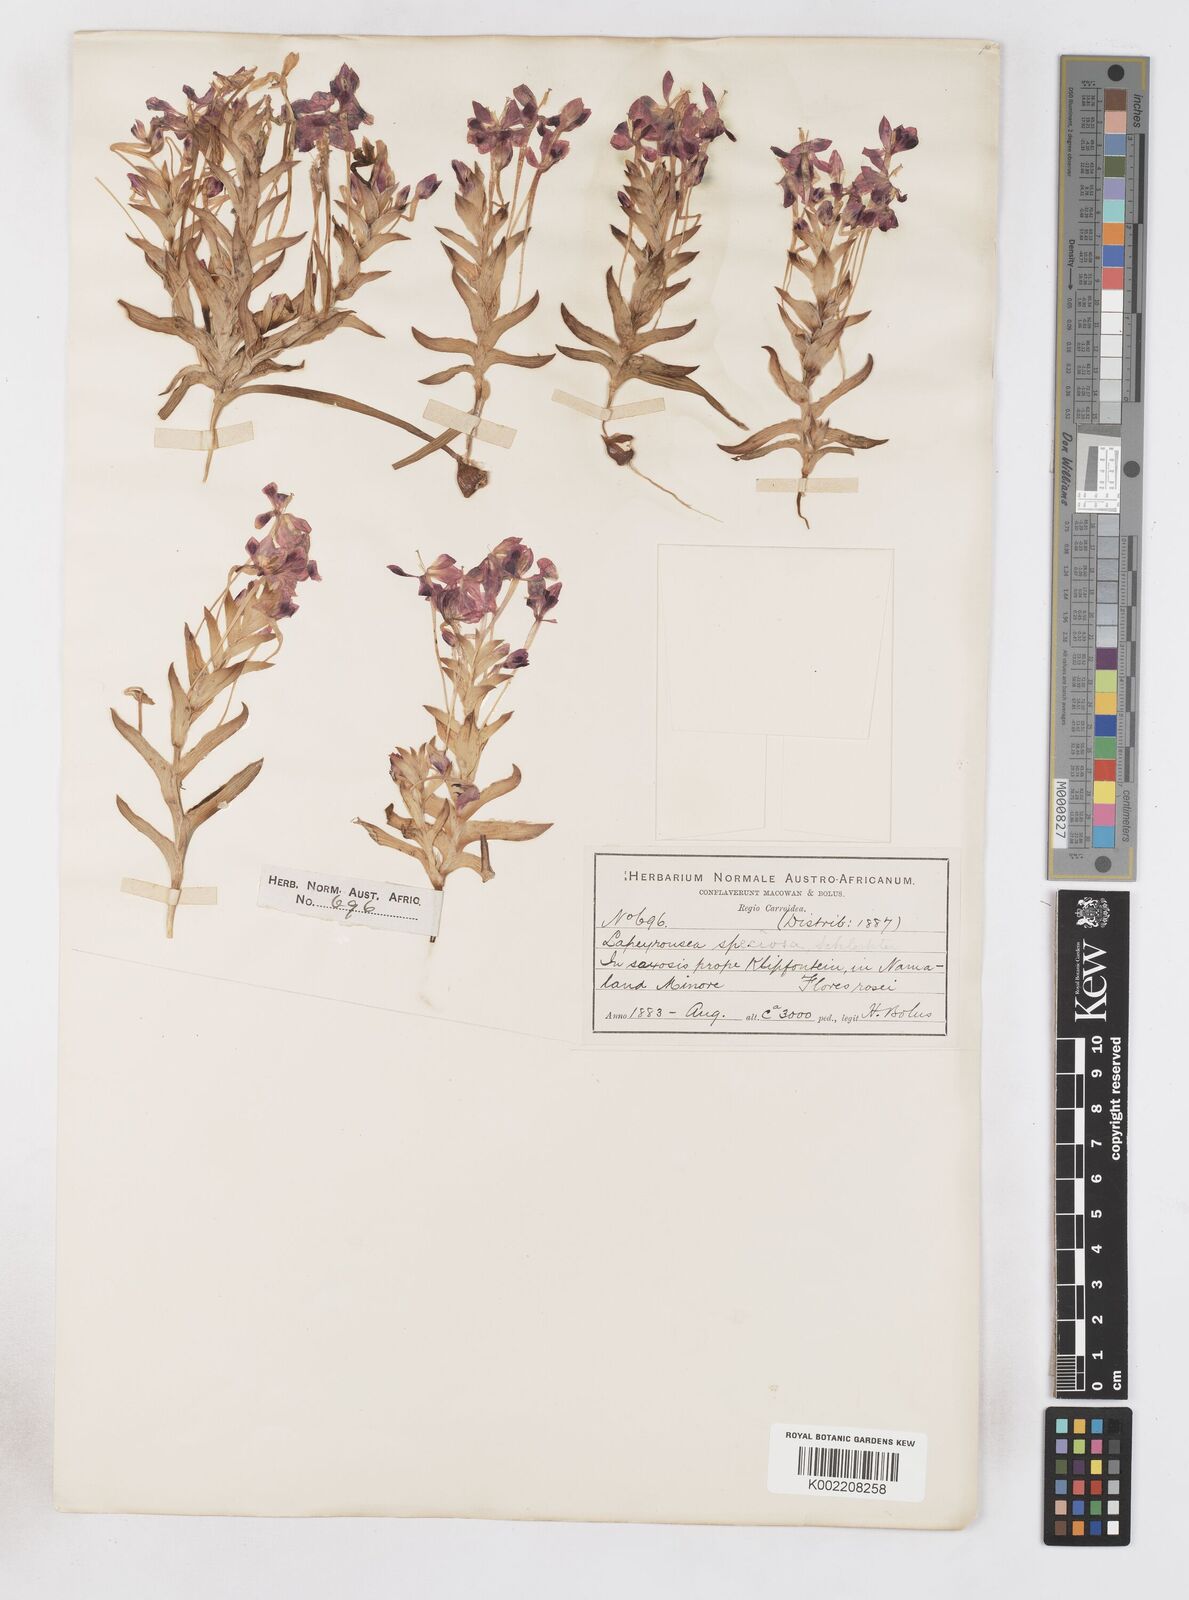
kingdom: Plantae
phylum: Tracheophyta
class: Liliopsida
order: Asparagales
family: Iridaceae
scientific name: Iridaceae
